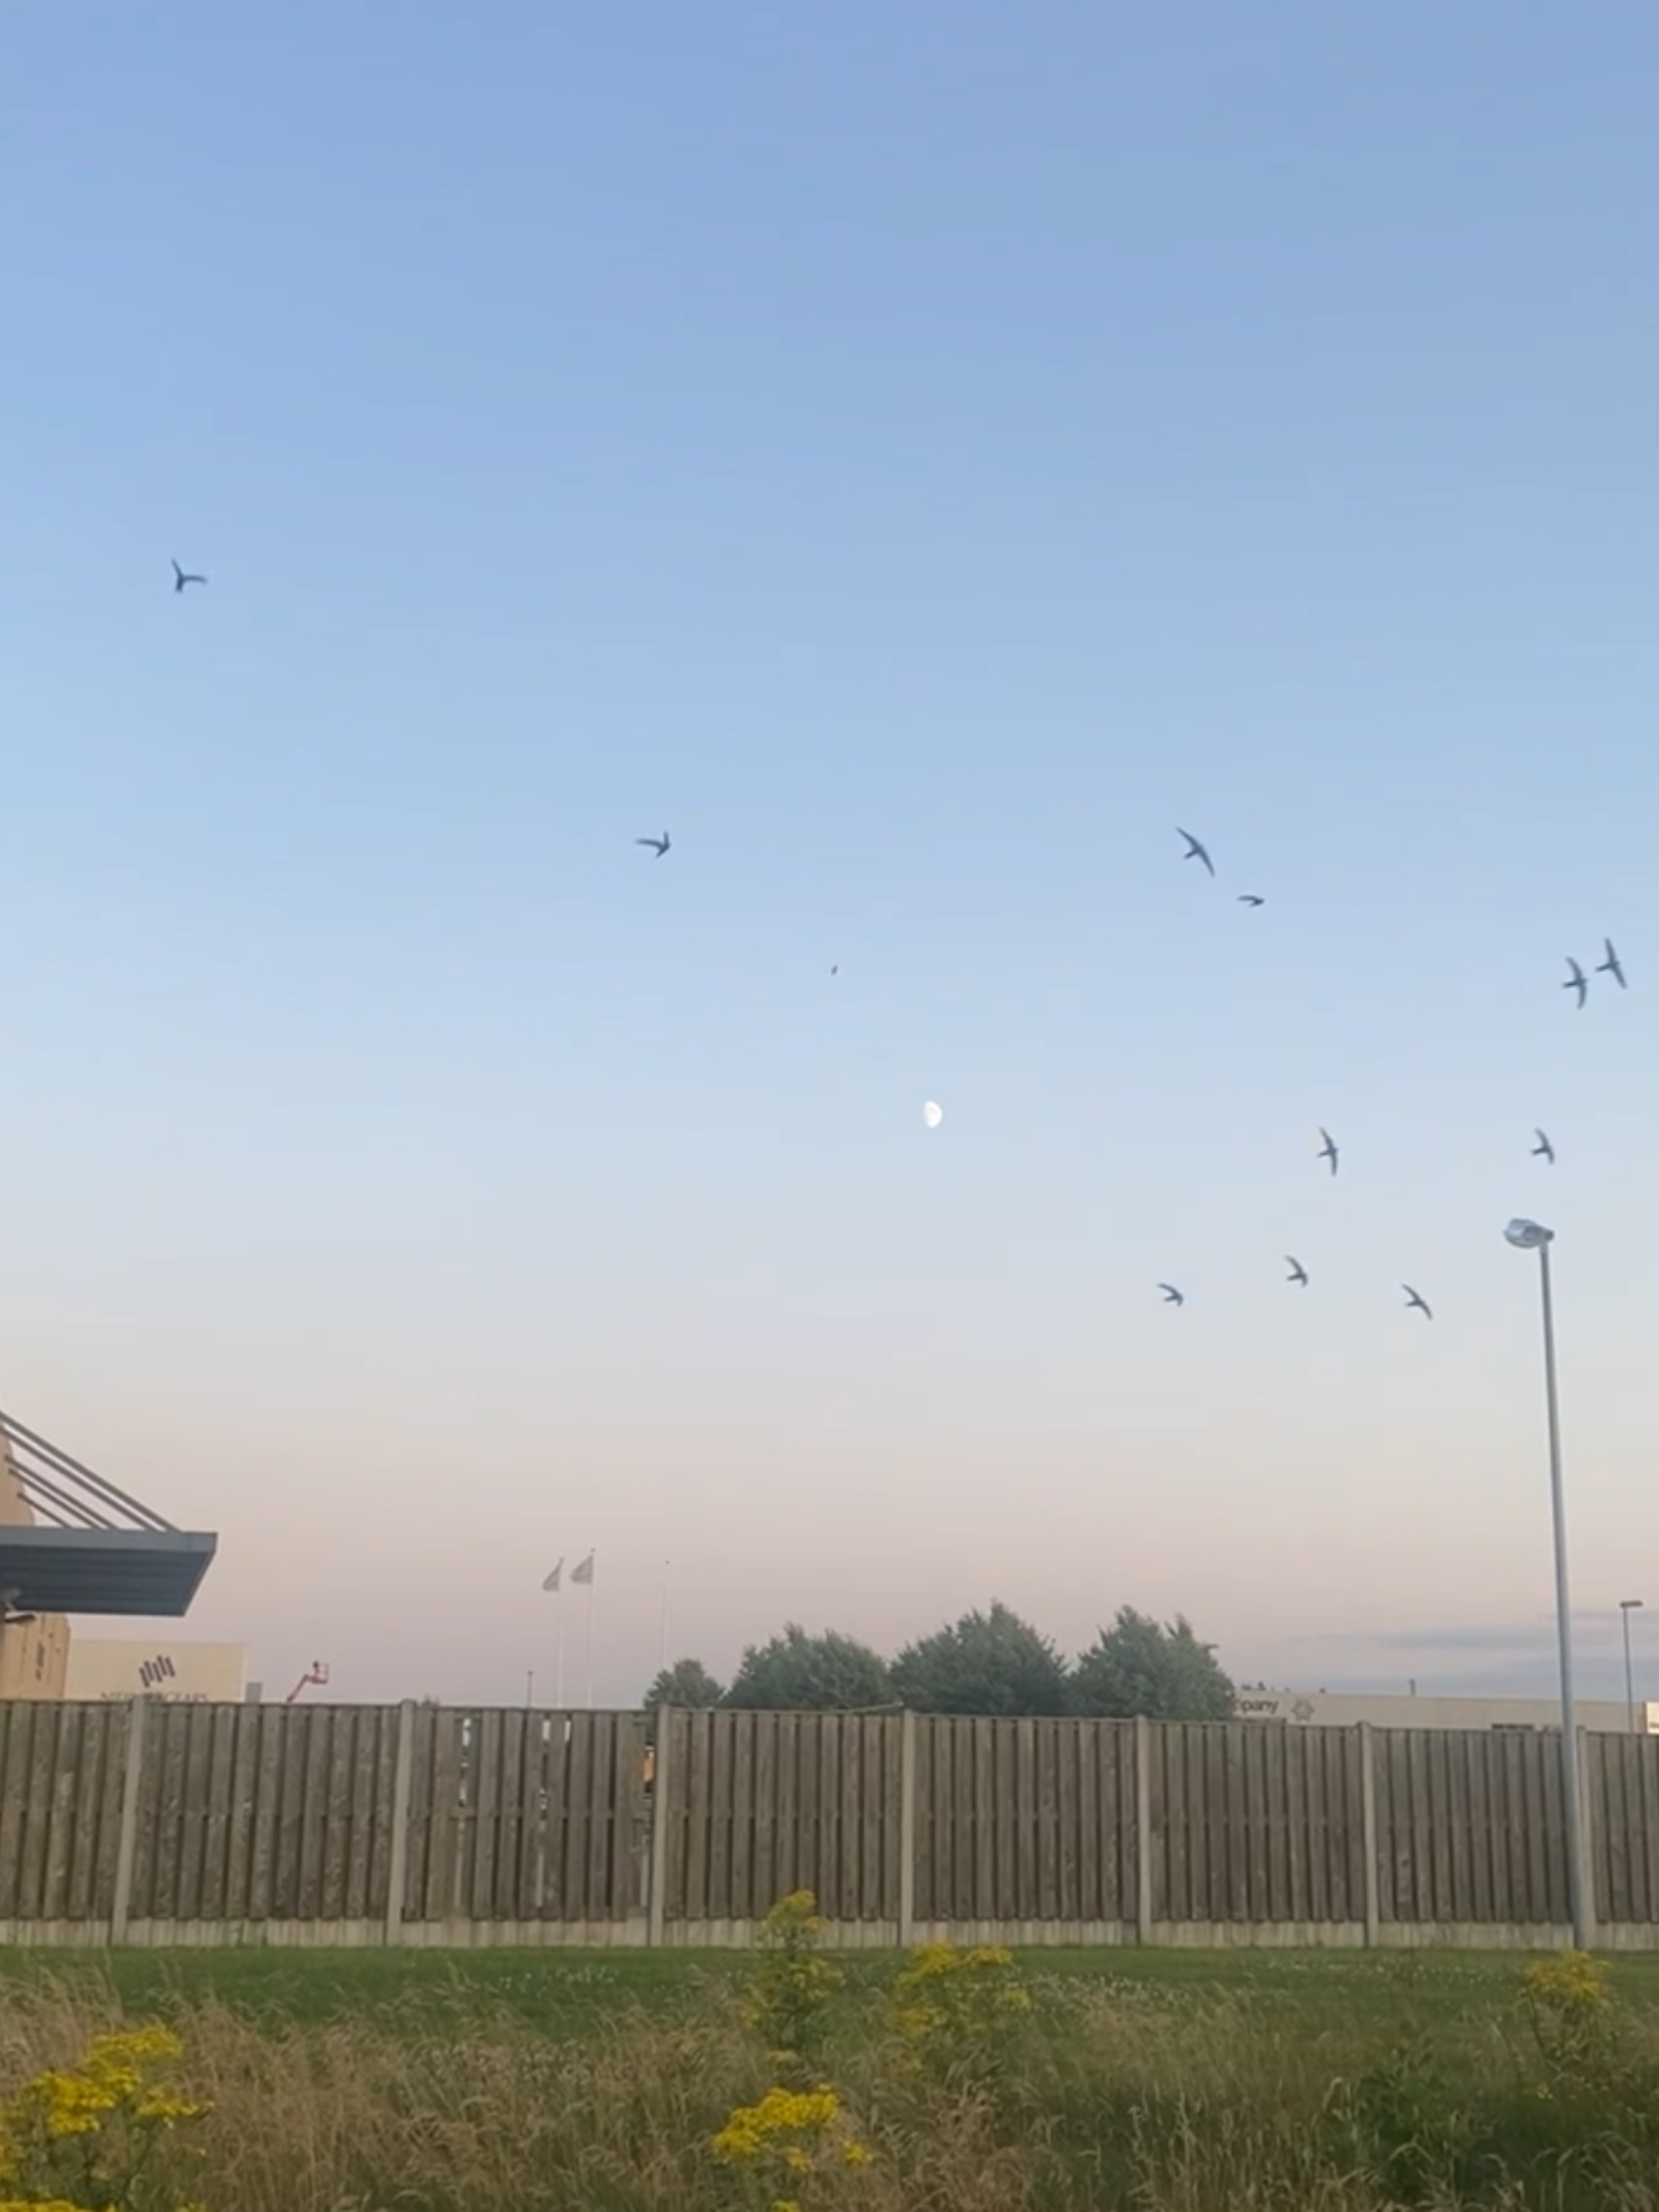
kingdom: Animalia
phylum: Chordata
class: Aves
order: Apodiformes
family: Apodidae
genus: Apus
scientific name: Apus apus
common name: Mursejler
